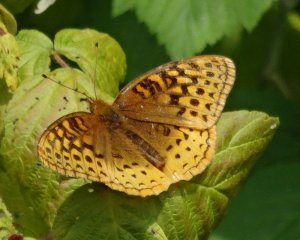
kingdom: Animalia
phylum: Arthropoda
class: Insecta
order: Lepidoptera
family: Nymphalidae
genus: Speyeria
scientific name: Speyeria cybele
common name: Great Spangled Fritillary
